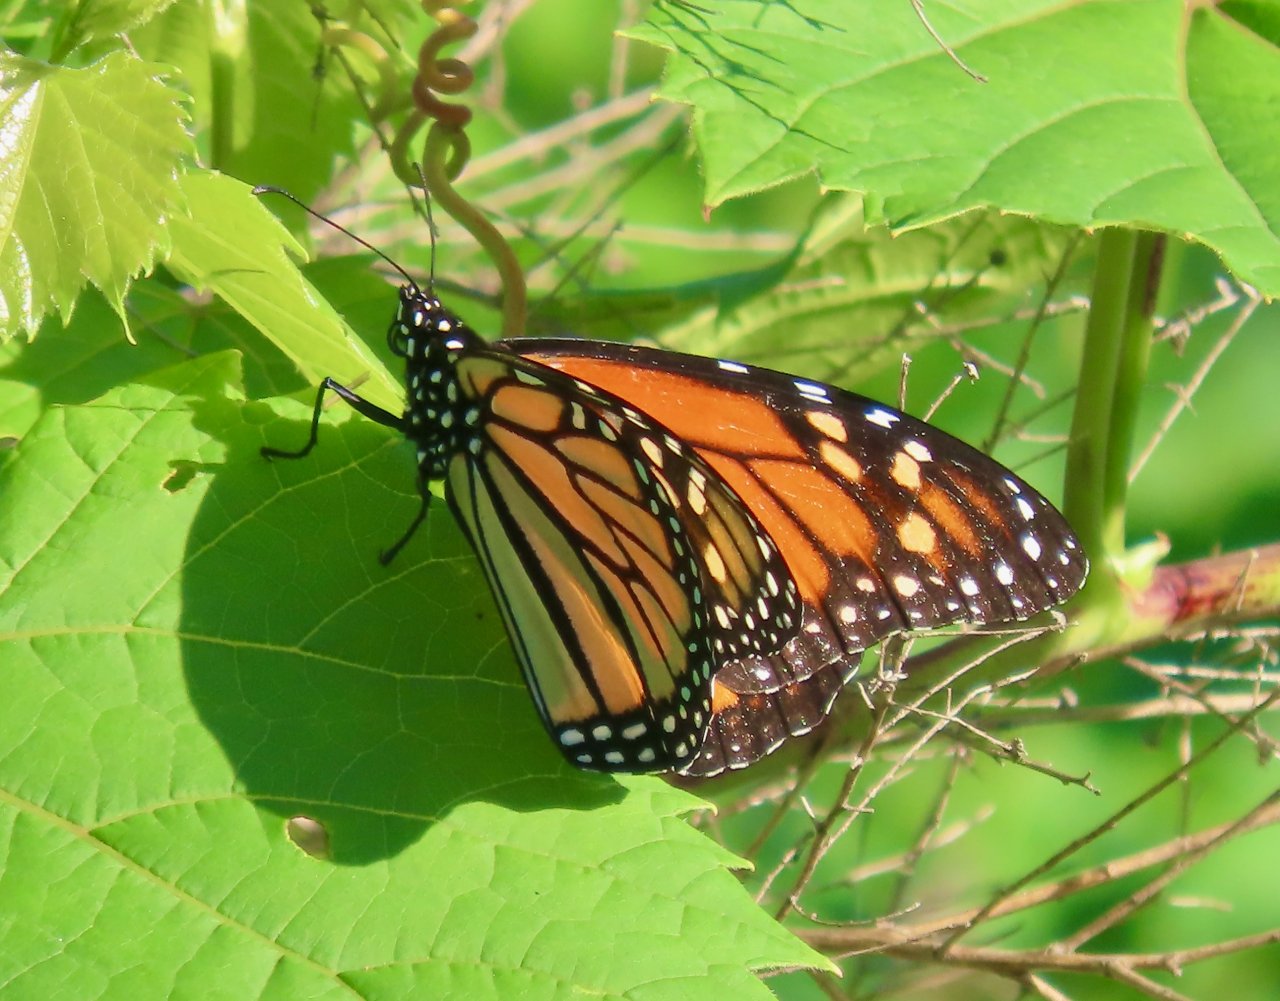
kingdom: Animalia
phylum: Arthropoda
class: Insecta
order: Lepidoptera
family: Nymphalidae
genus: Danaus
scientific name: Danaus plexippus
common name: Monarch
